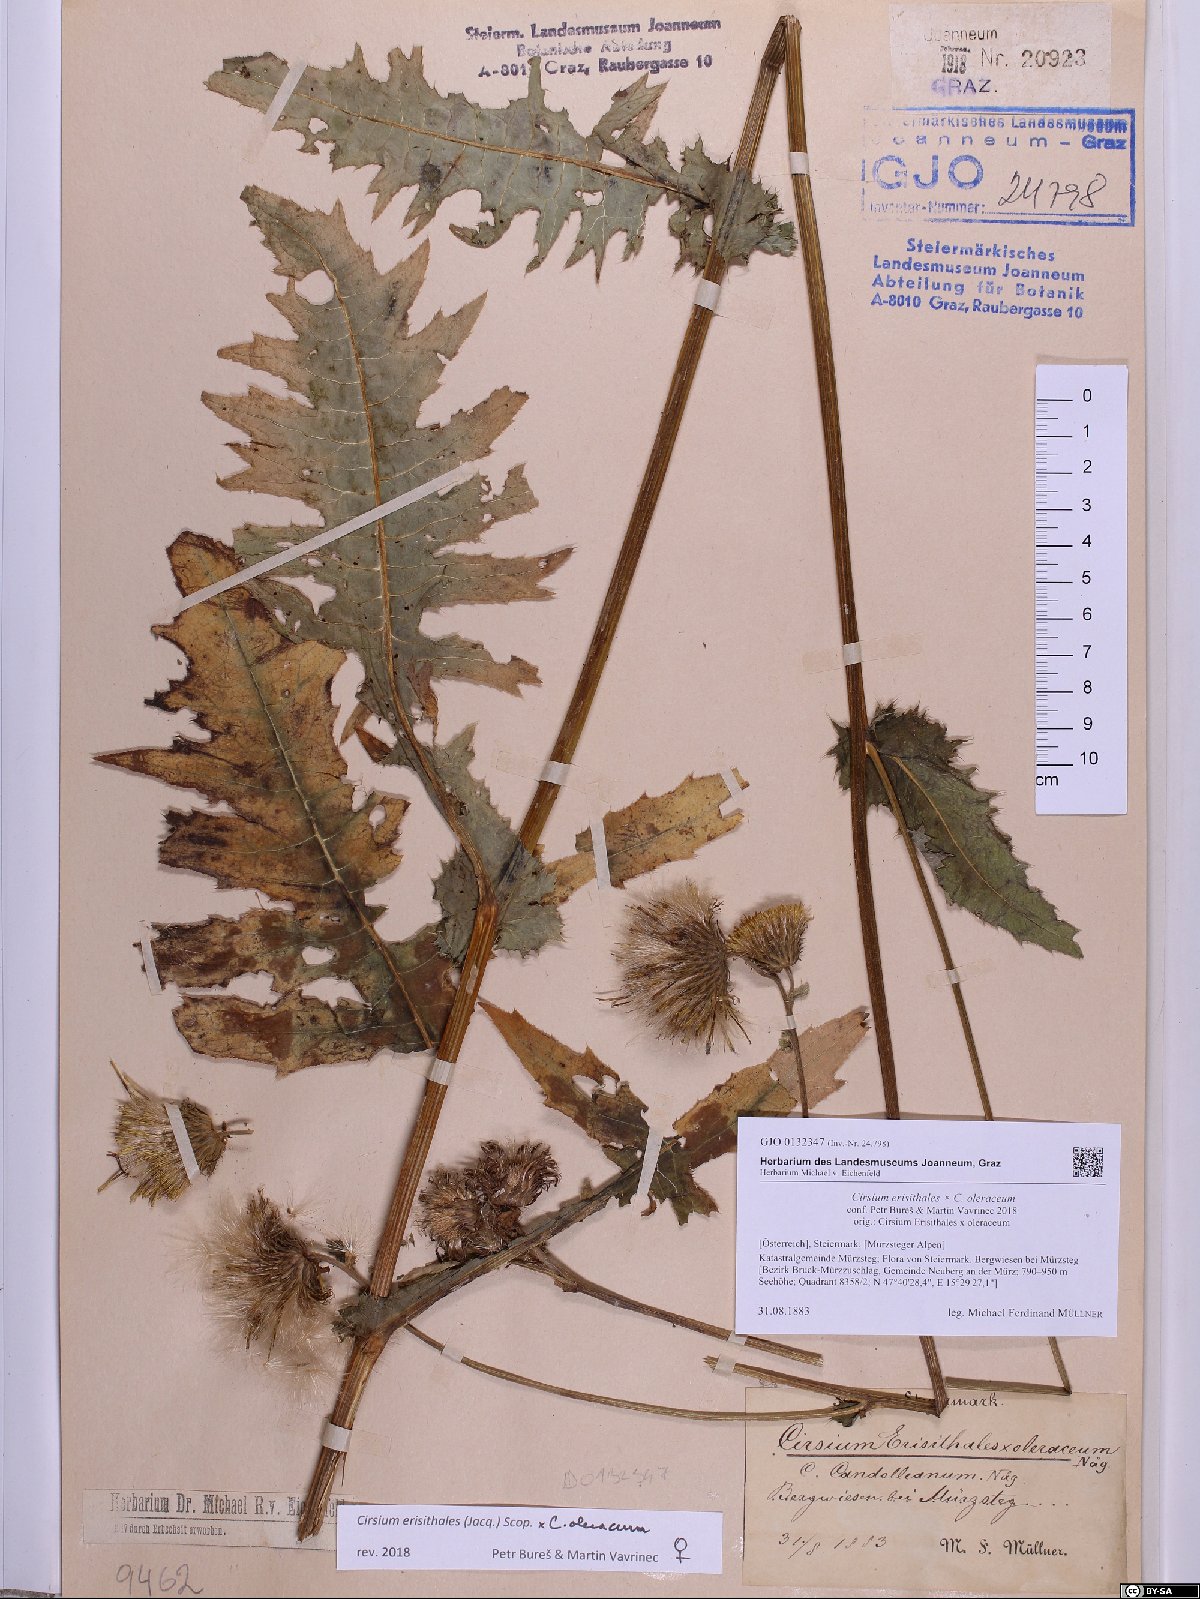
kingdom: Plantae
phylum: Tracheophyta
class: Magnoliopsida
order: Asterales
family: Asteraceae
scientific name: Asteraceae
